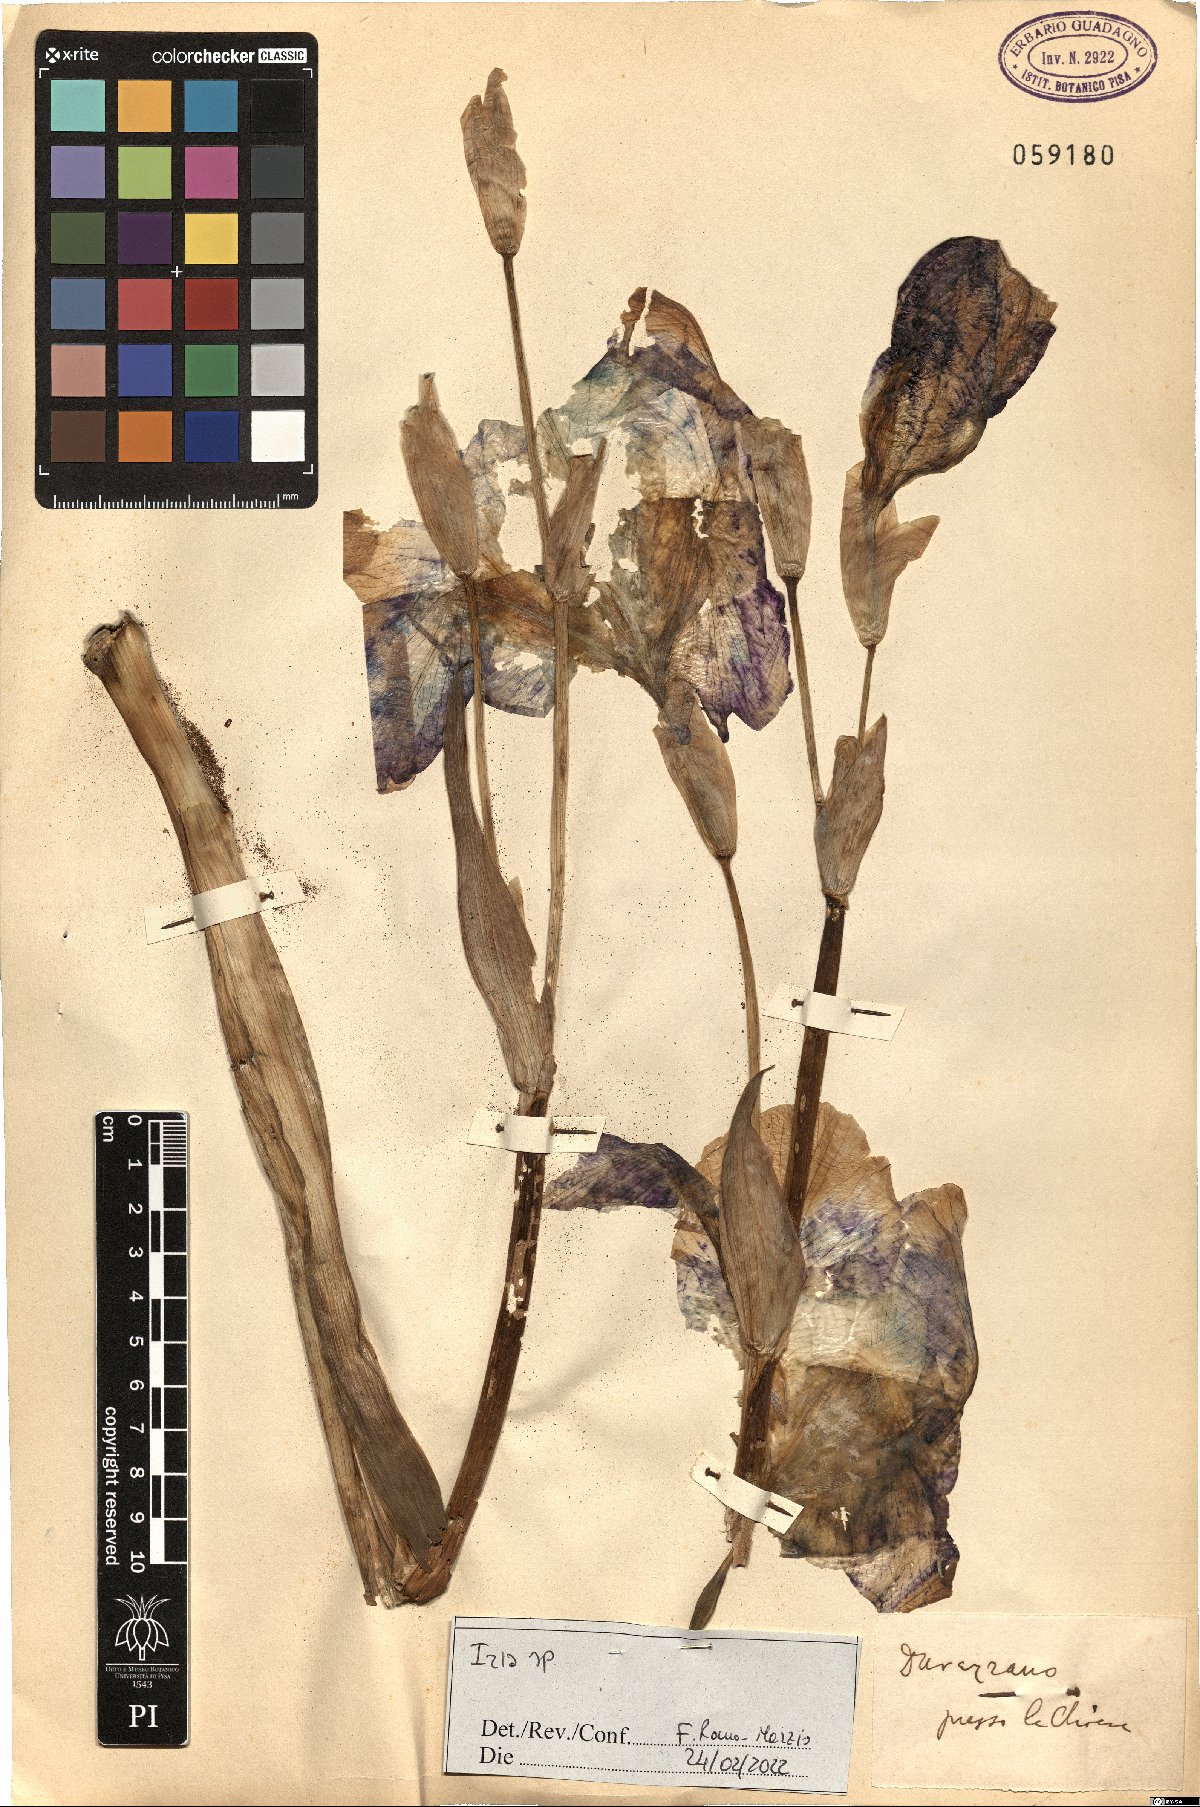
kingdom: Plantae
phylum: Tracheophyta
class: Liliopsida
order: Asparagales
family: Iridaceae
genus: Iris
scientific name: Iris
